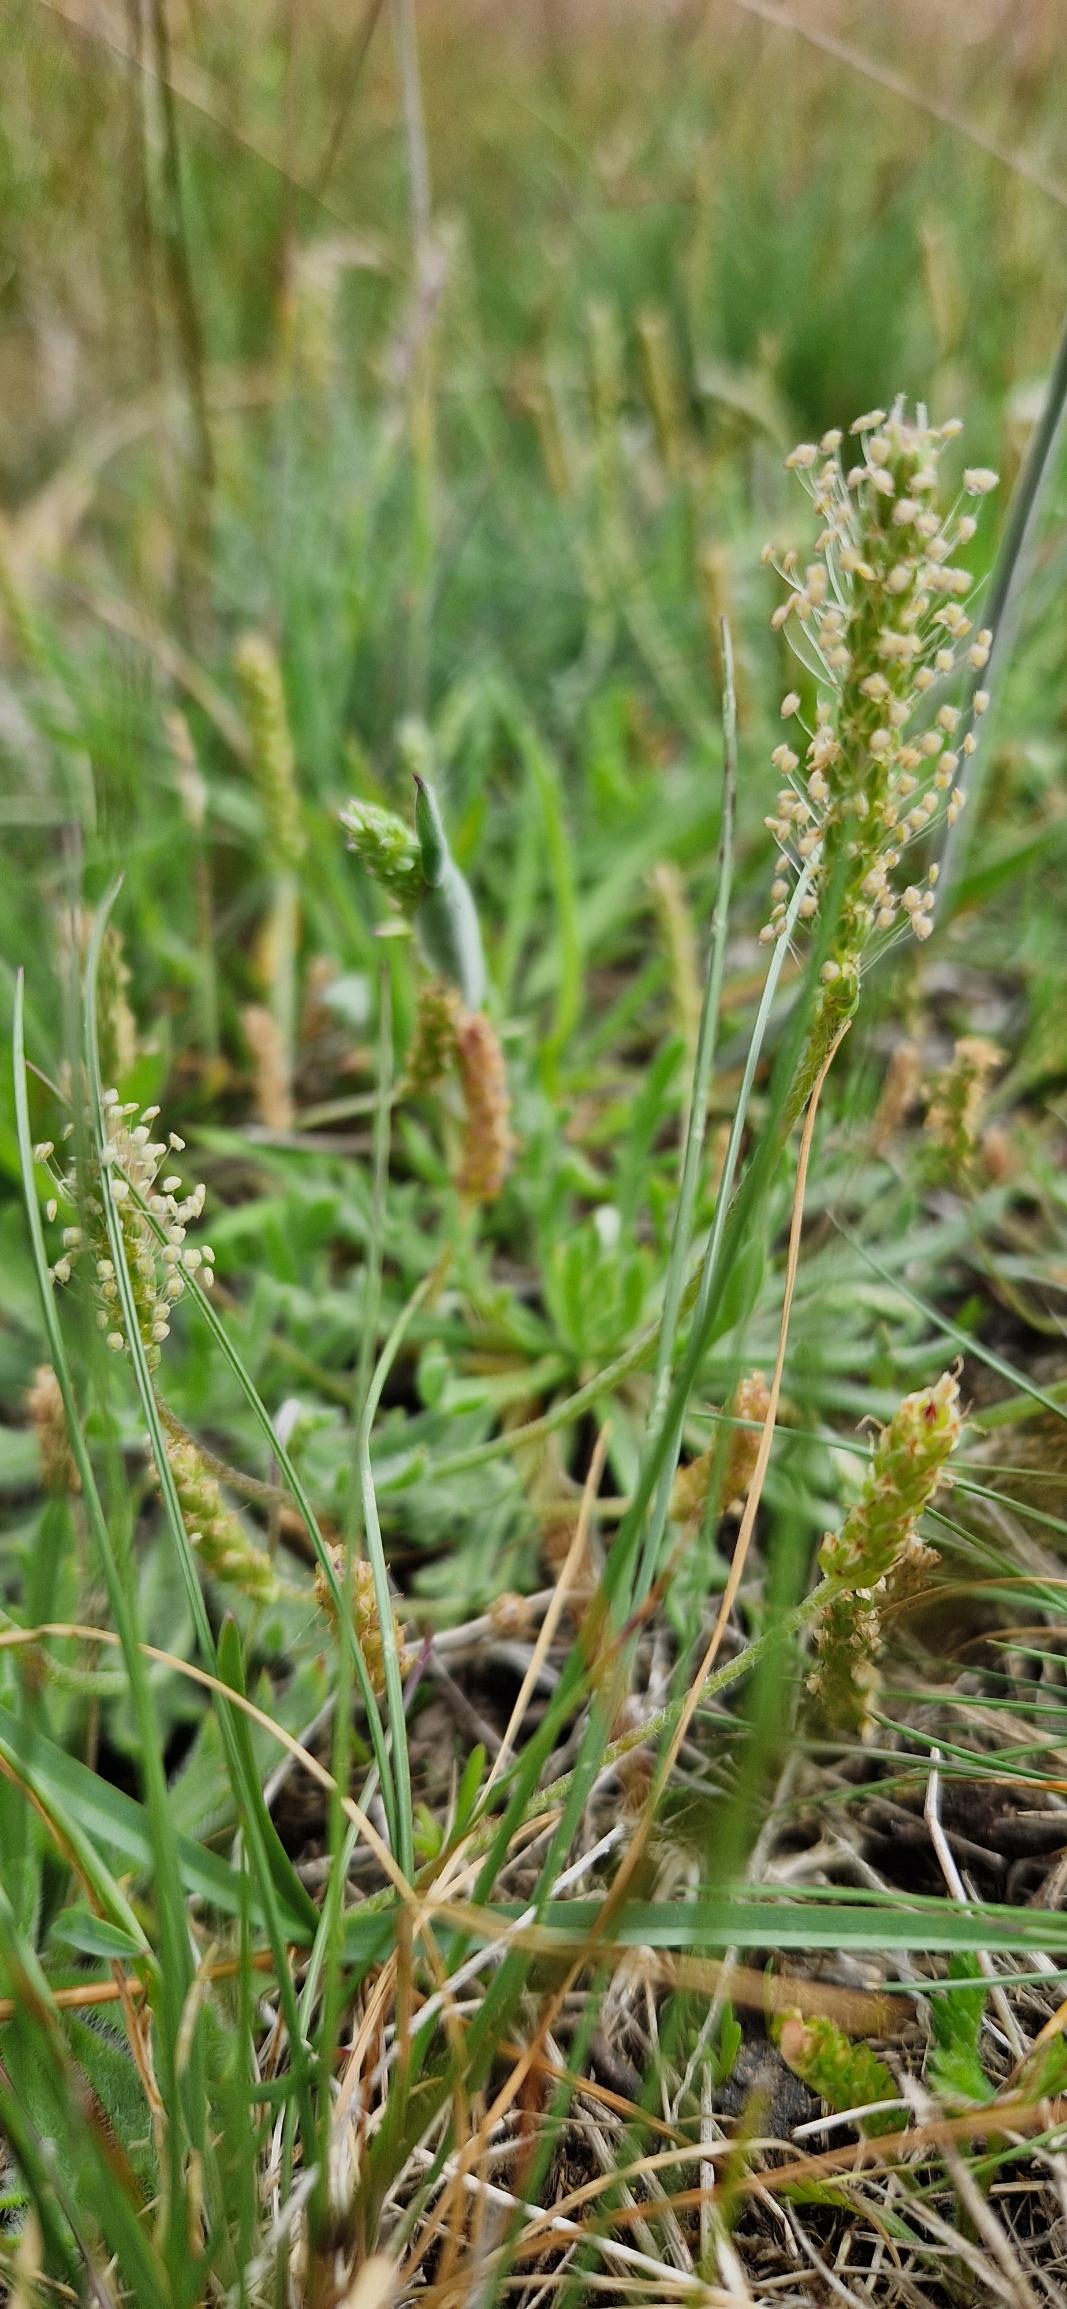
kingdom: Plantae
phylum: Tracheophyta
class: Magnoliopsida
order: Lamiales
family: Plantaginaceae
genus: Plantago
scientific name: Plantago coronopus
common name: Fliget vejbred
